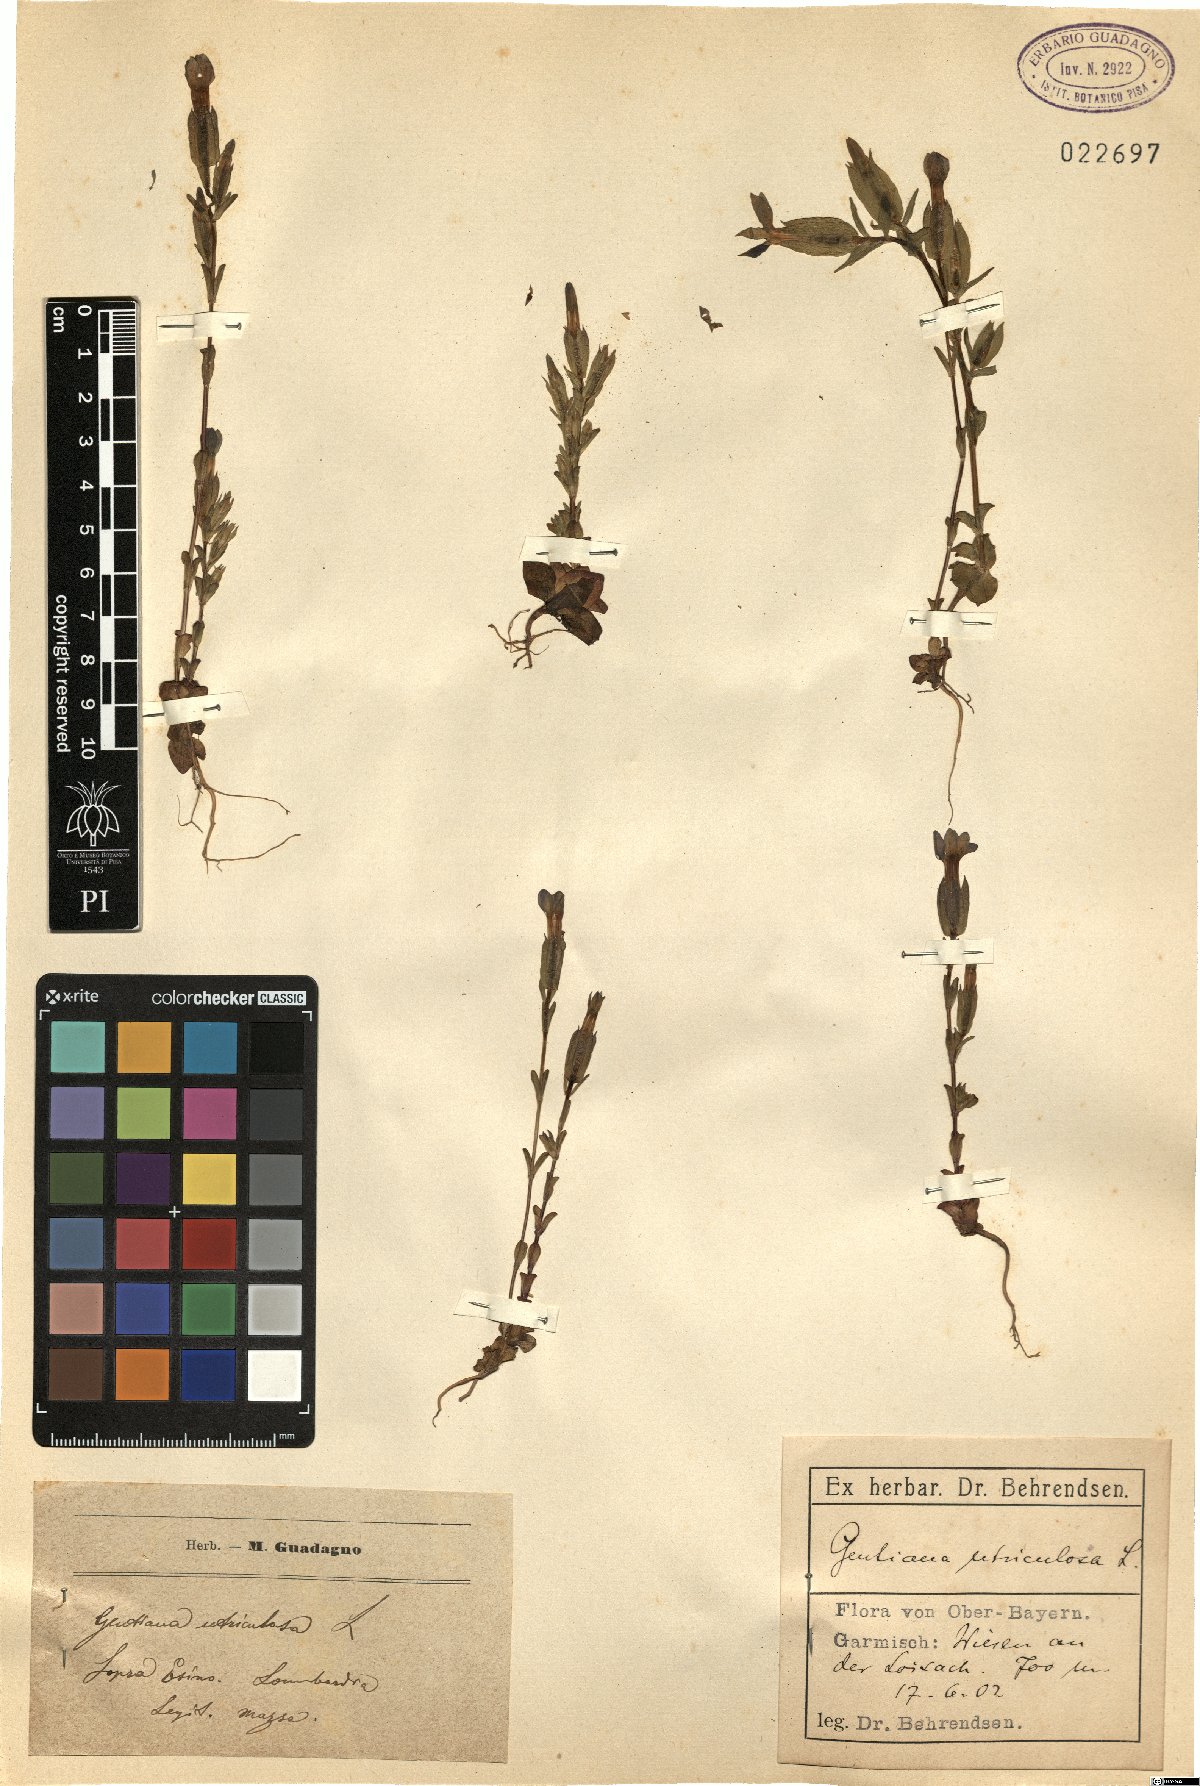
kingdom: Plantae
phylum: Tracheophyta
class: Magnoliopsida
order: Gentianales
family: Gentianaceae
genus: Gentiana
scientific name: Gentiana utriculosa
